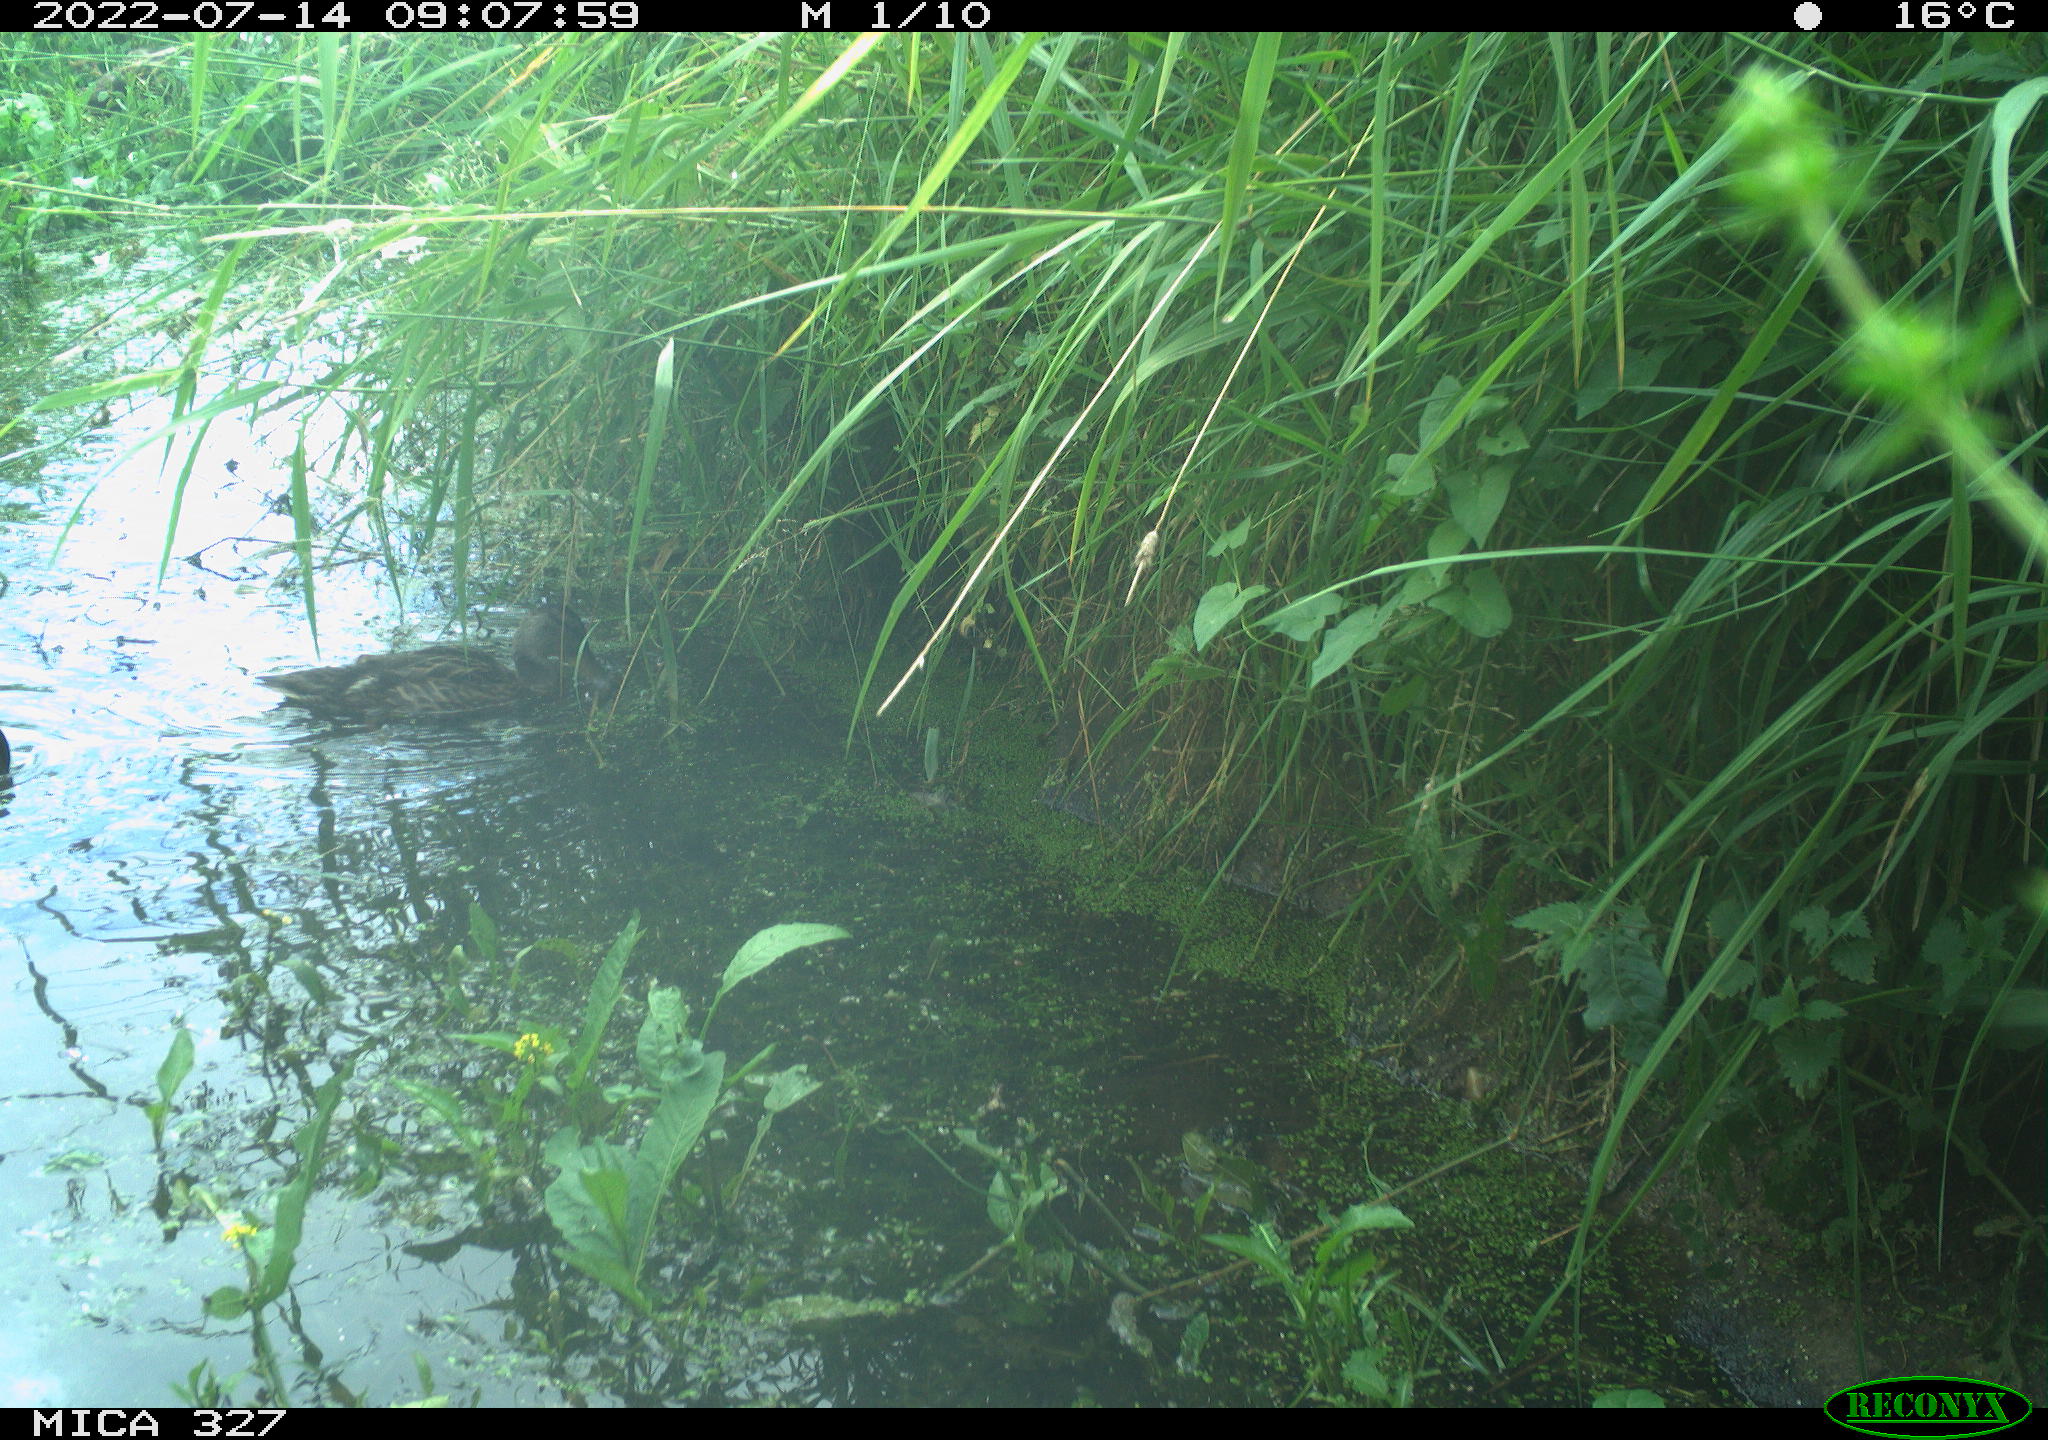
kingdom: Animalia
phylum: Chordata
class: Aves
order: Anseriformes
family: Anatidae
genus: Anas
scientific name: Anas
